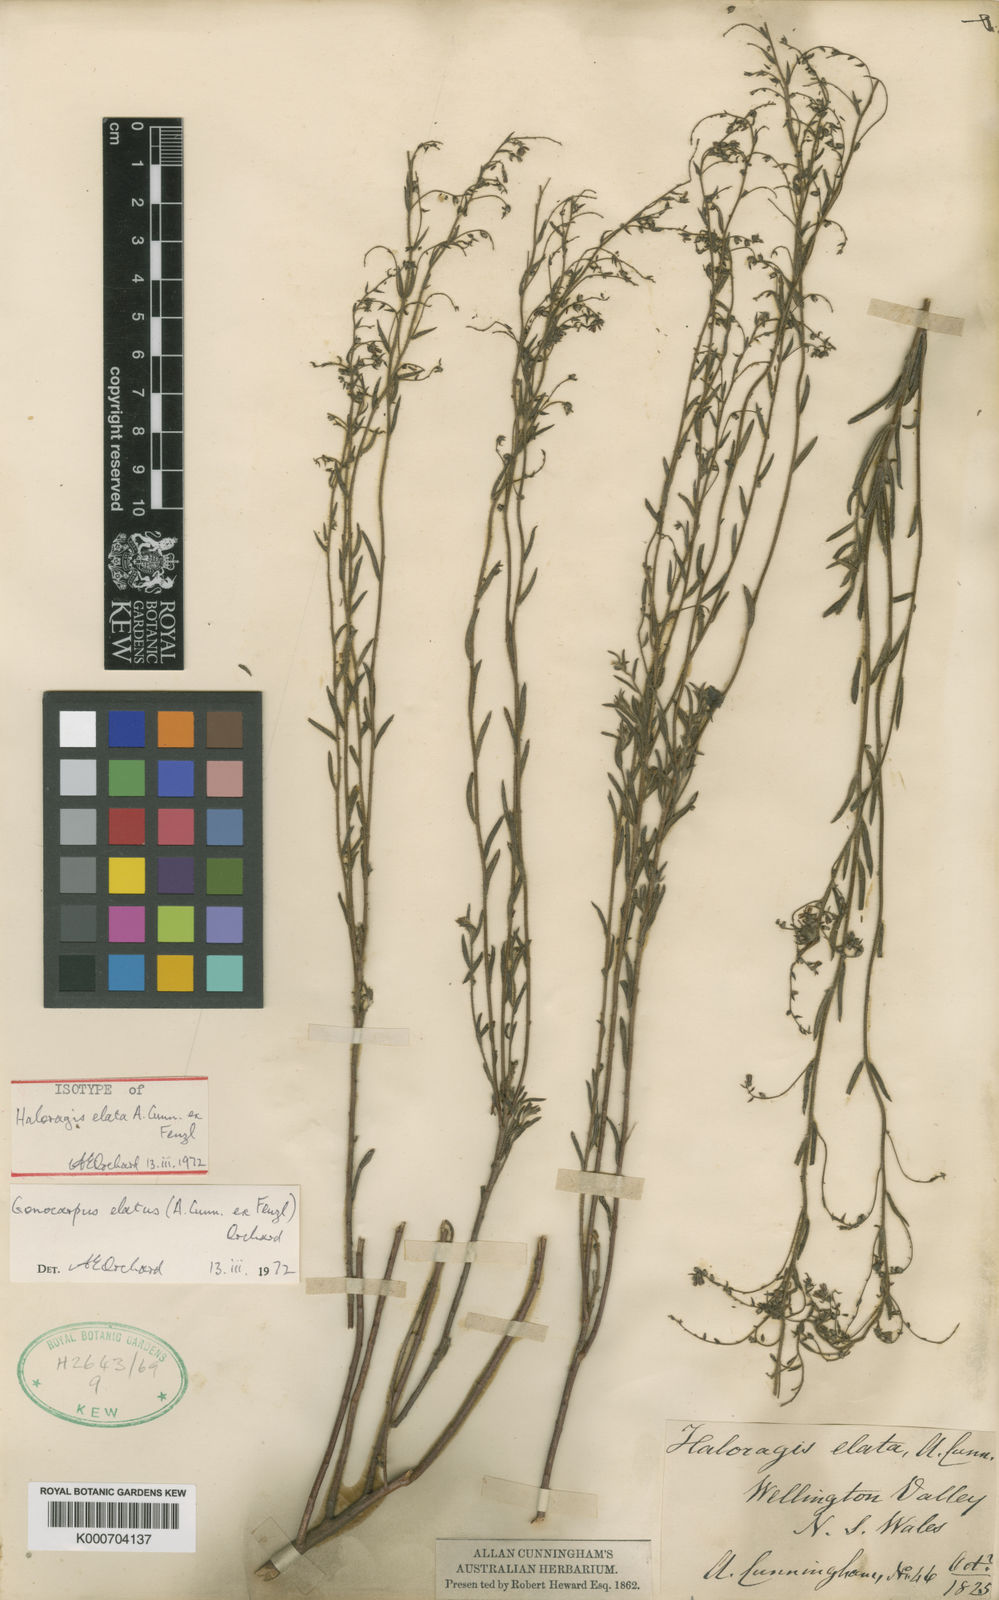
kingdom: Plantae
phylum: Tracheophyta
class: Magnoliopsida
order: Saxifragales
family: Haloragaceae
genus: Gonocarpus
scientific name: Gonocarpus elatus
